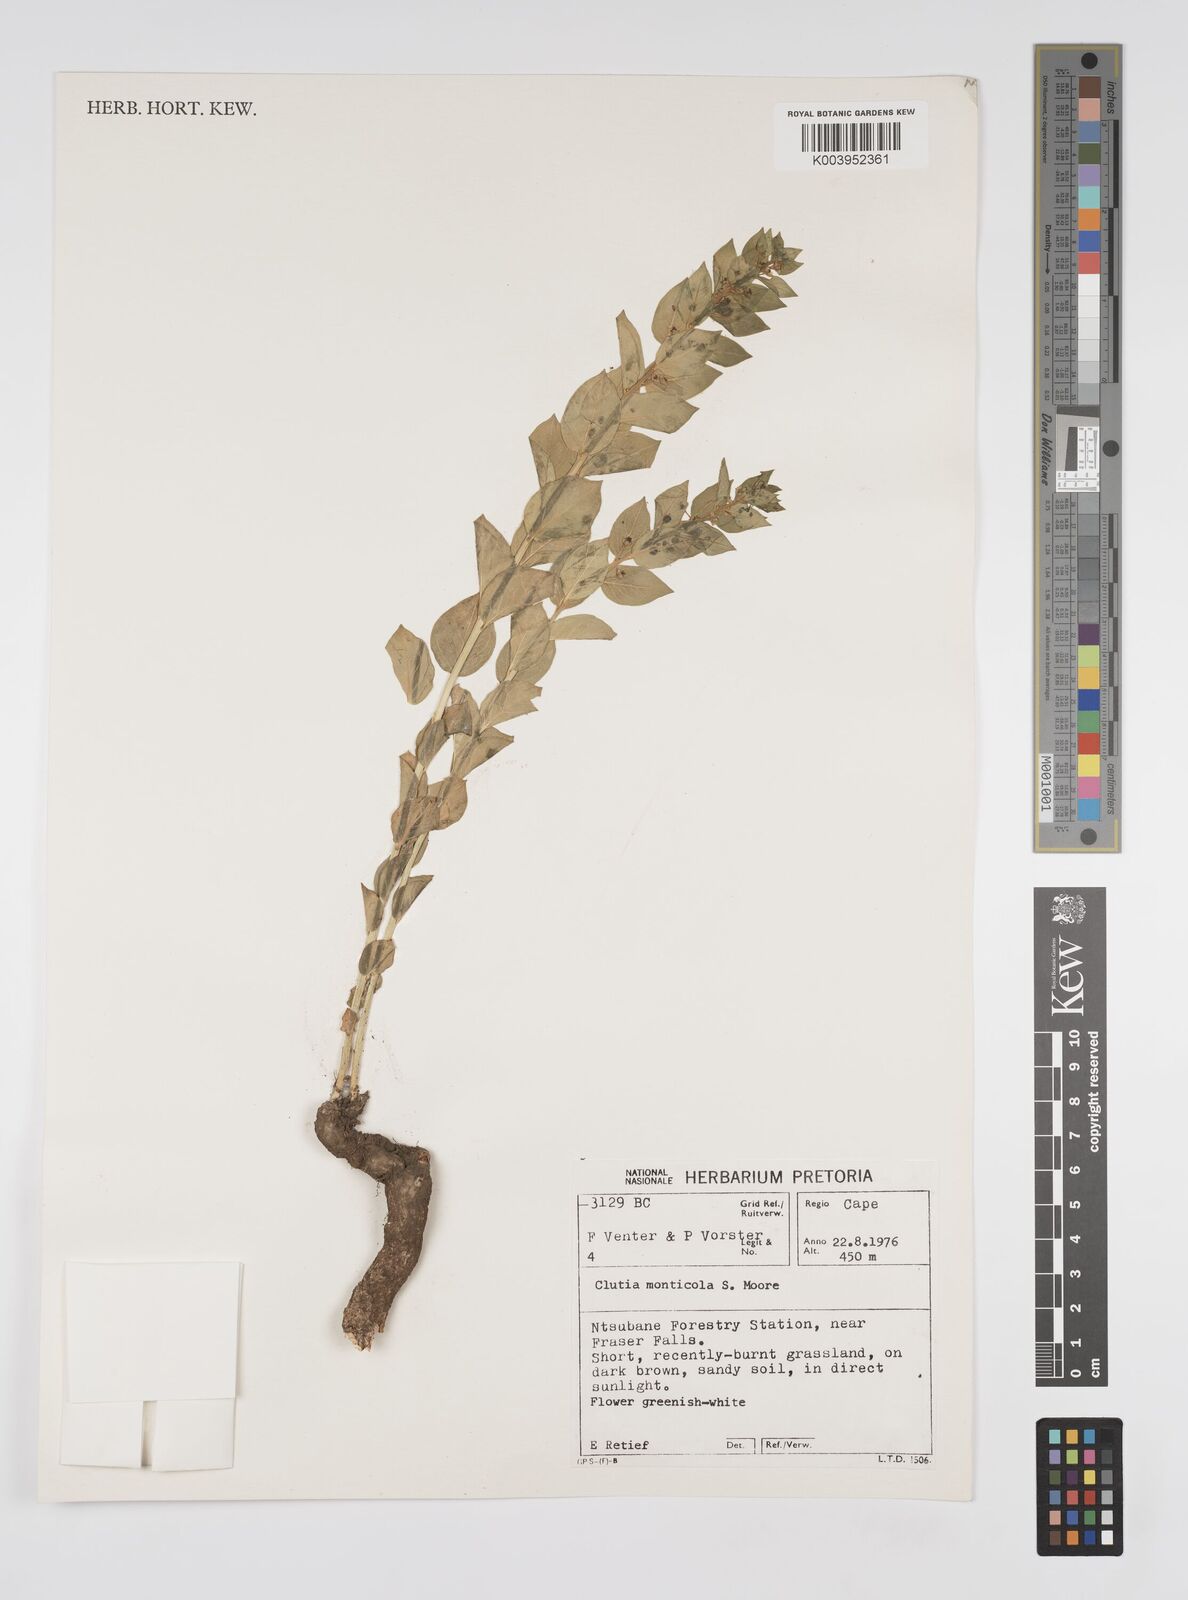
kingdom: Plantae
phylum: Tracheophyta
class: Magnoliopsida
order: Malpighiales
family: Peraceae
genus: Clutia
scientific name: Clutia monticola
